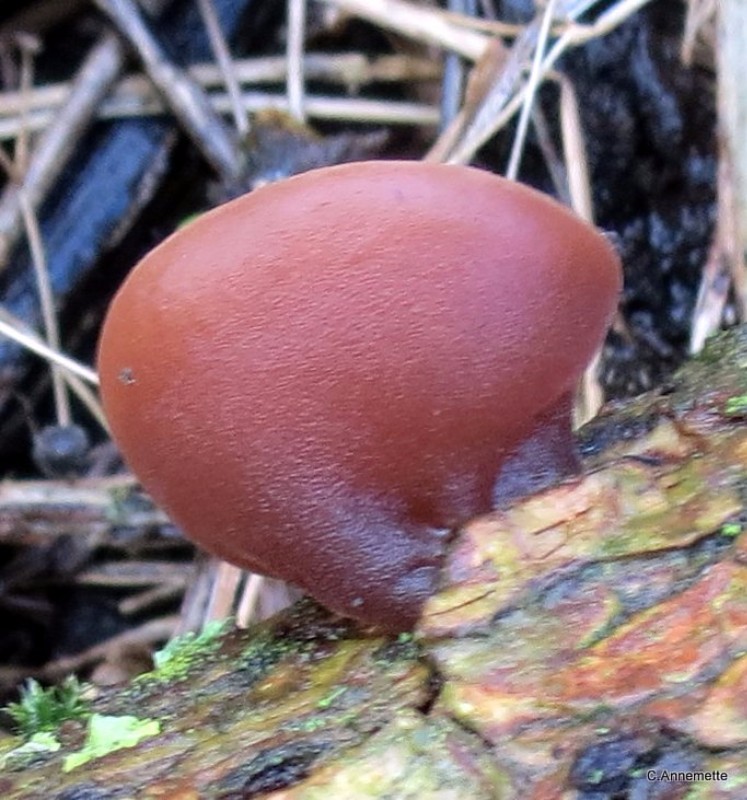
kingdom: Fungi
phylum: Basidiomycota
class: Agaricomycetes
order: Auriculariales
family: Auriculariaceae
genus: Auricularia
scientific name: Auricularia auricula-judae
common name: almindelig judasøre
